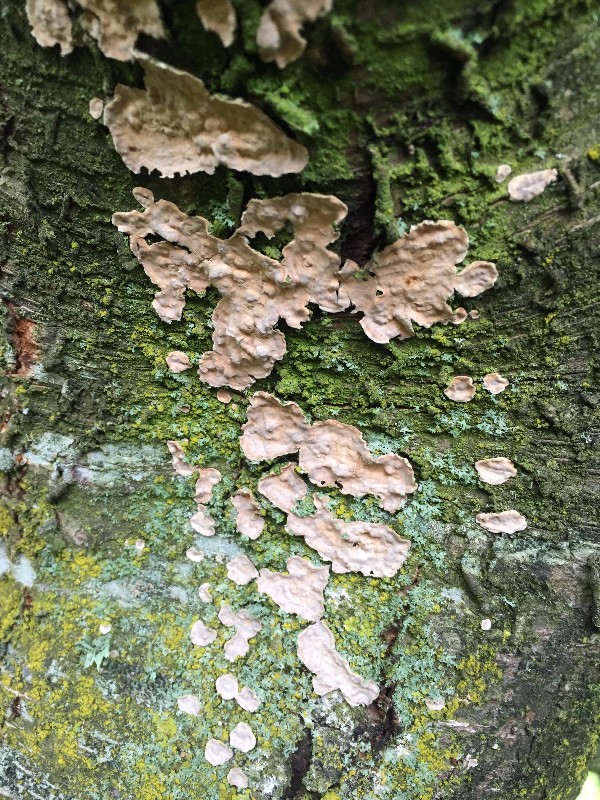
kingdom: Fungi
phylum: Basidiomycota
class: Agaricomycetes
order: Russulales
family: Stereaceae
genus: Stereum
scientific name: Stereum rugosum
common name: rynket lædersvamp
